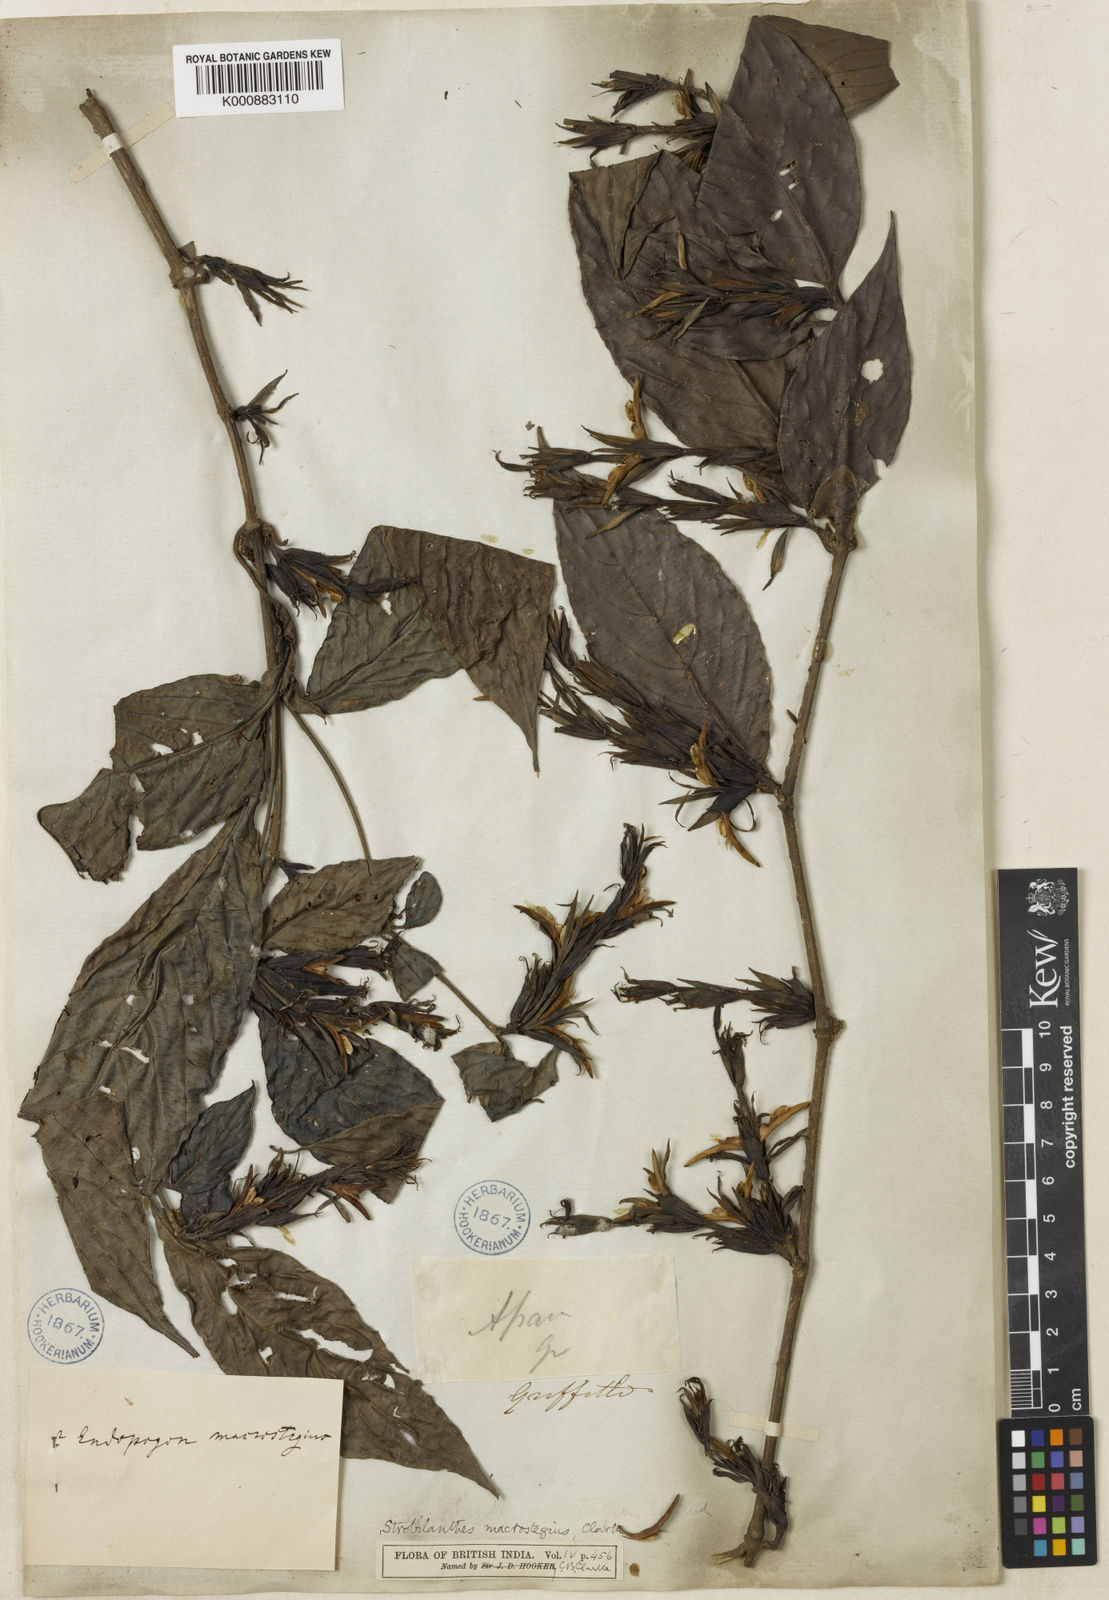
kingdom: Plantae
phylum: Tracheophyta
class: Magnoliopsida
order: Lamiales
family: Acanthaceae
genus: Strobilanthes
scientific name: Strobilanthes fimbriata
